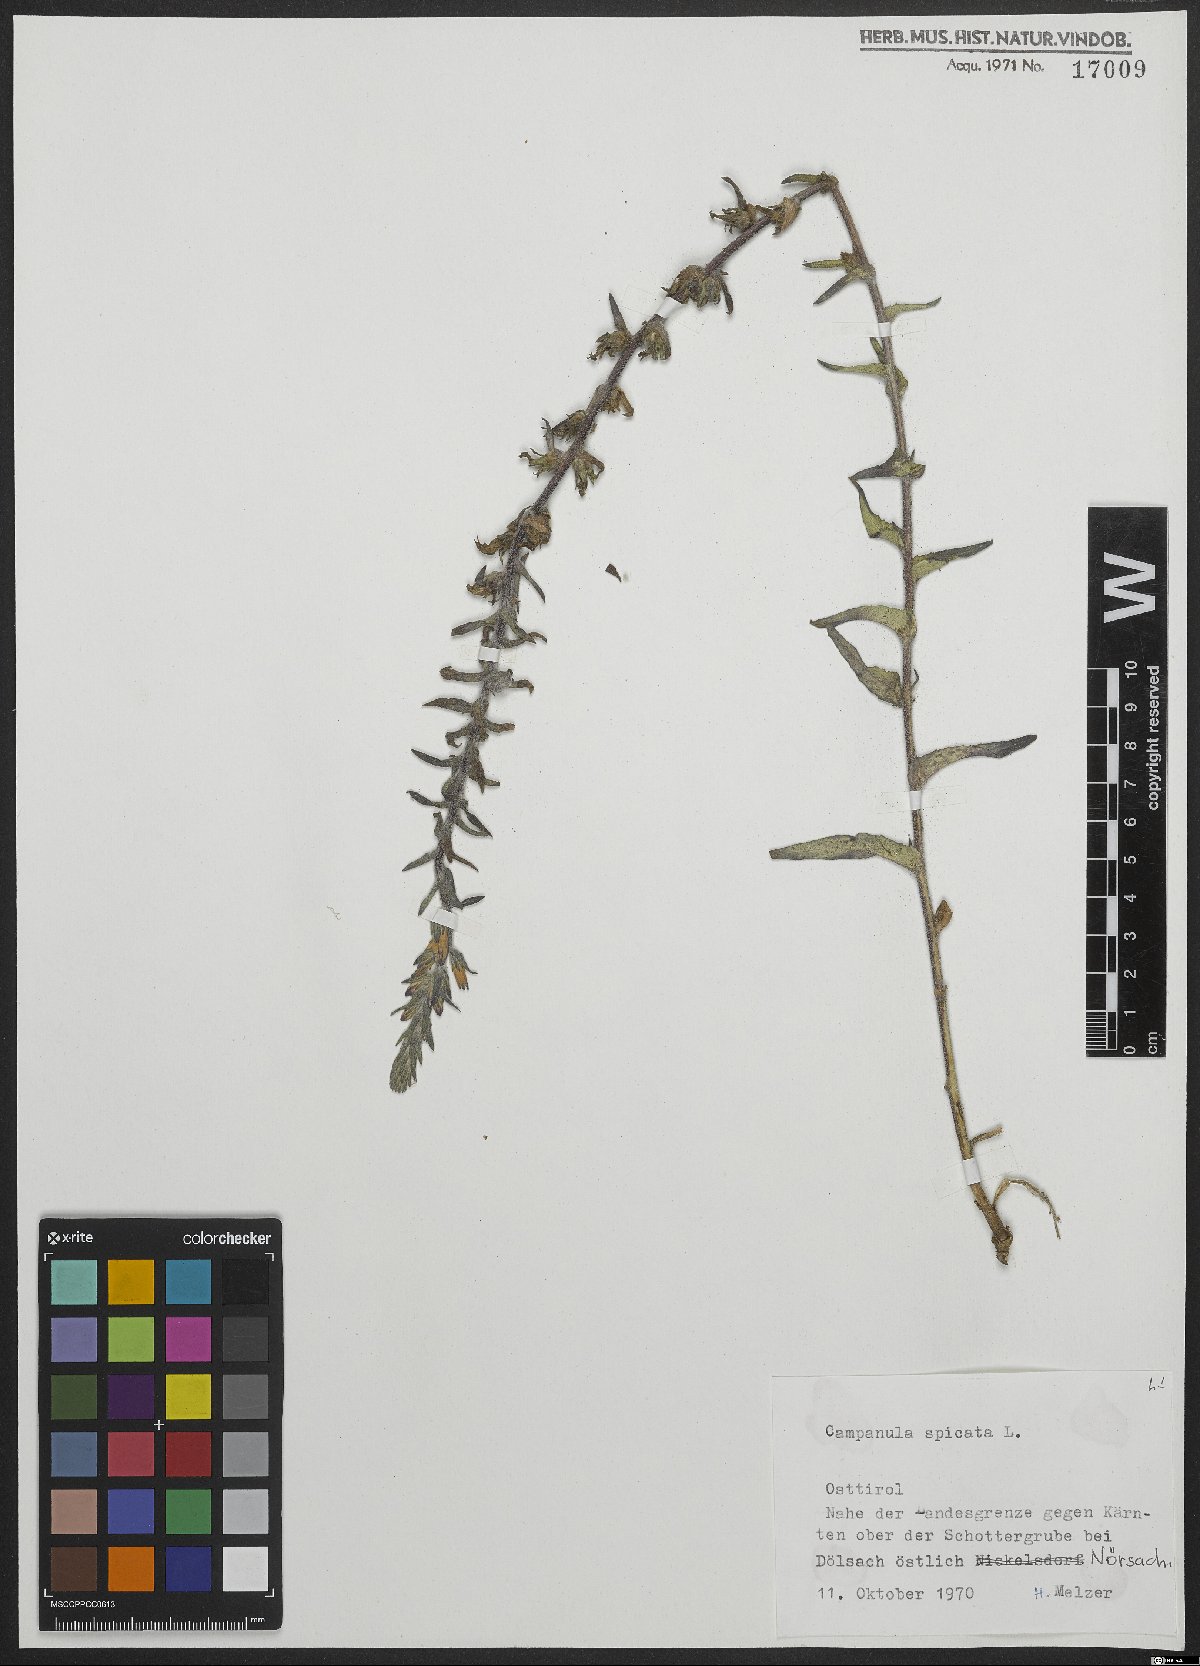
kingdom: Plantae
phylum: Tracheophyta
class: Magnoliopsida
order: Asterales
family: Campanulaceae
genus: Campanula
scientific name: Campanula spicata
